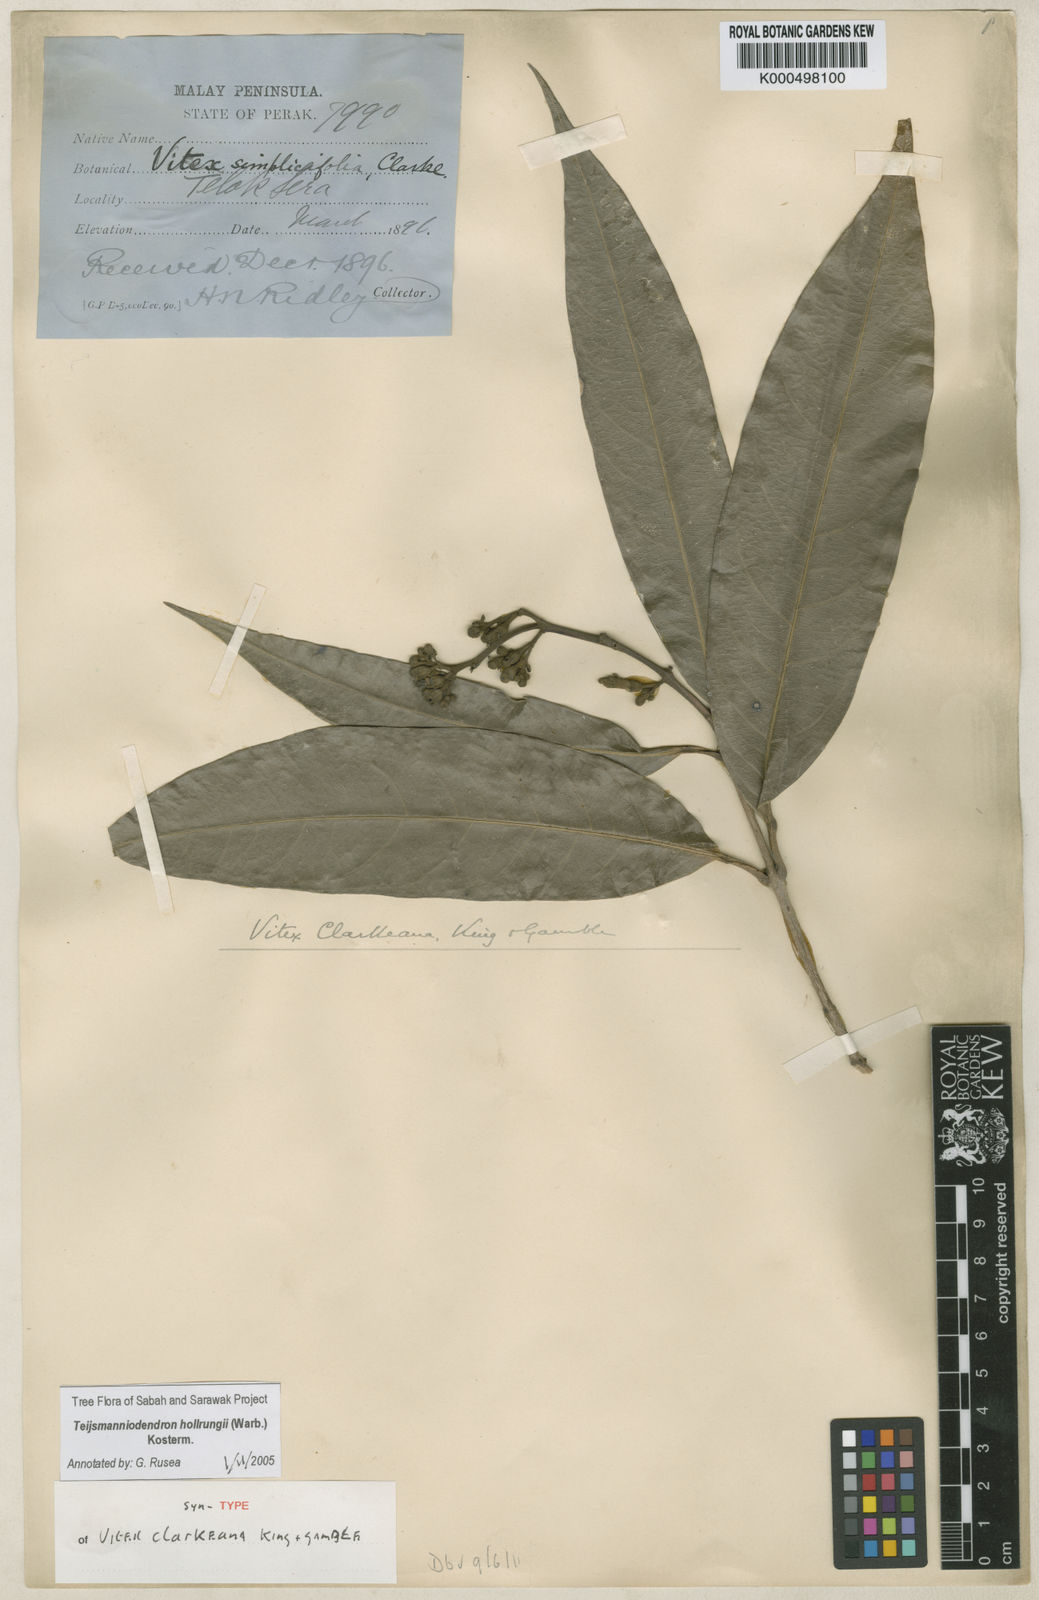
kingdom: Plantae
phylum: Tracheophyta
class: Magnoliopsida
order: Lamiales
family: Lamiaceae
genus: Teijsmanniodendron
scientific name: Teijsmanniodendron hollrungii
